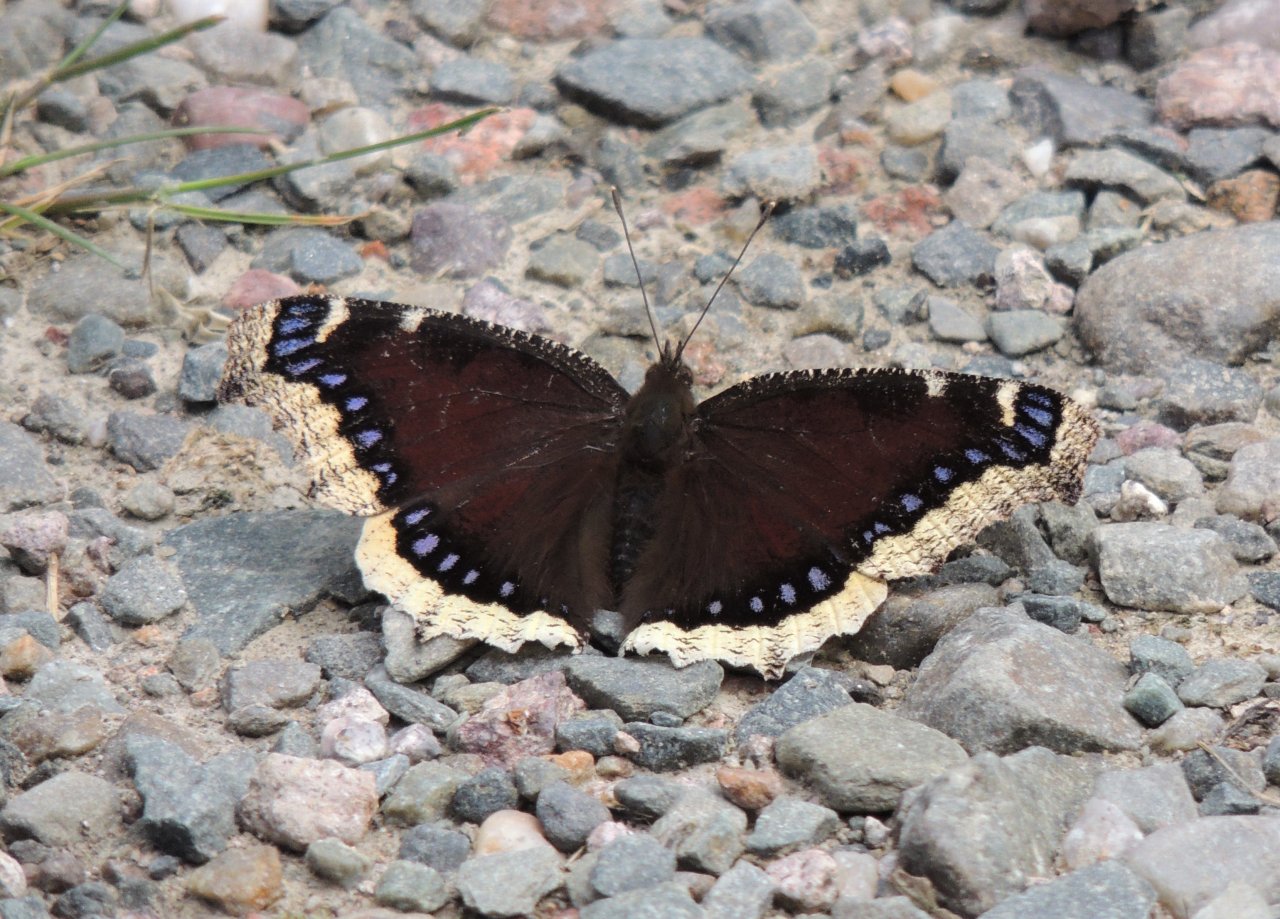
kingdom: Animalia
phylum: Arthropoda
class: Insecta
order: Lepidoptera
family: Nymphalidae
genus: Nymphalis
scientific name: Nymphalis antiopa
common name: Mourning Cloak
